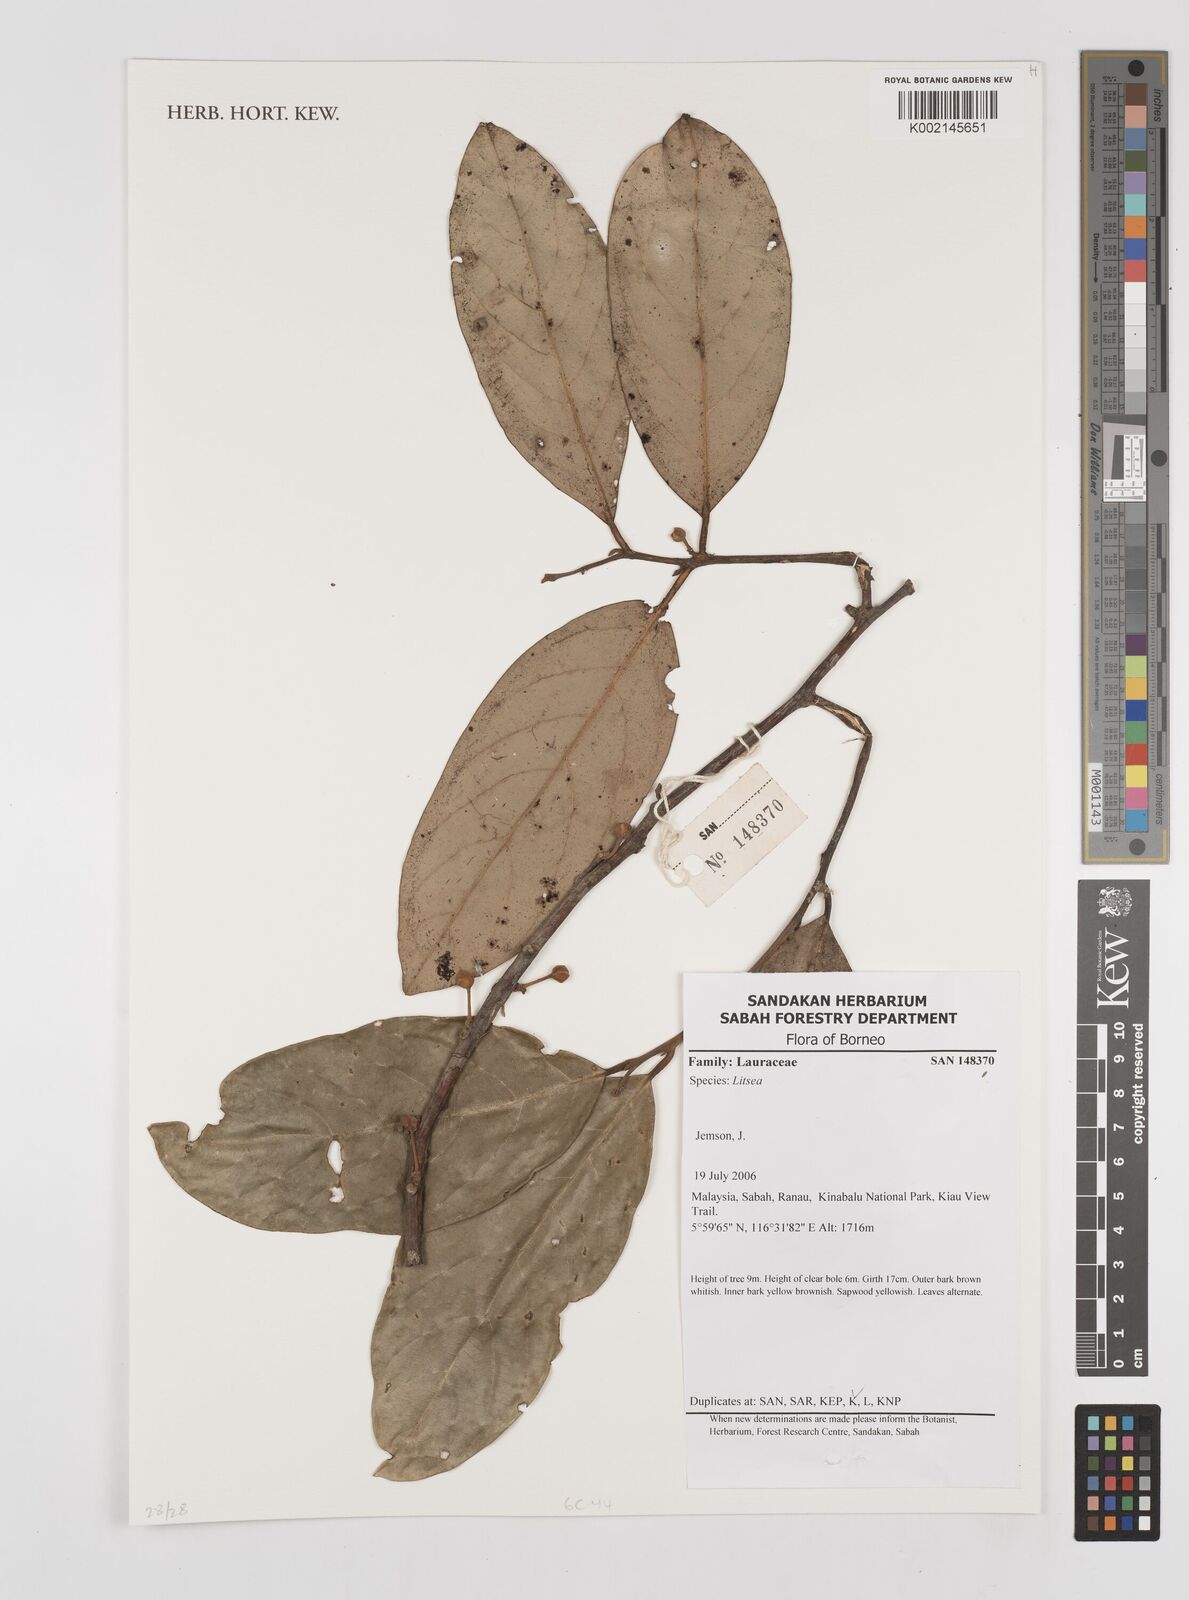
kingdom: Plantae
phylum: Tracheophyta
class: Magnoliopsida
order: Laurales
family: Lauraceae
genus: Litsea
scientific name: Litsea
